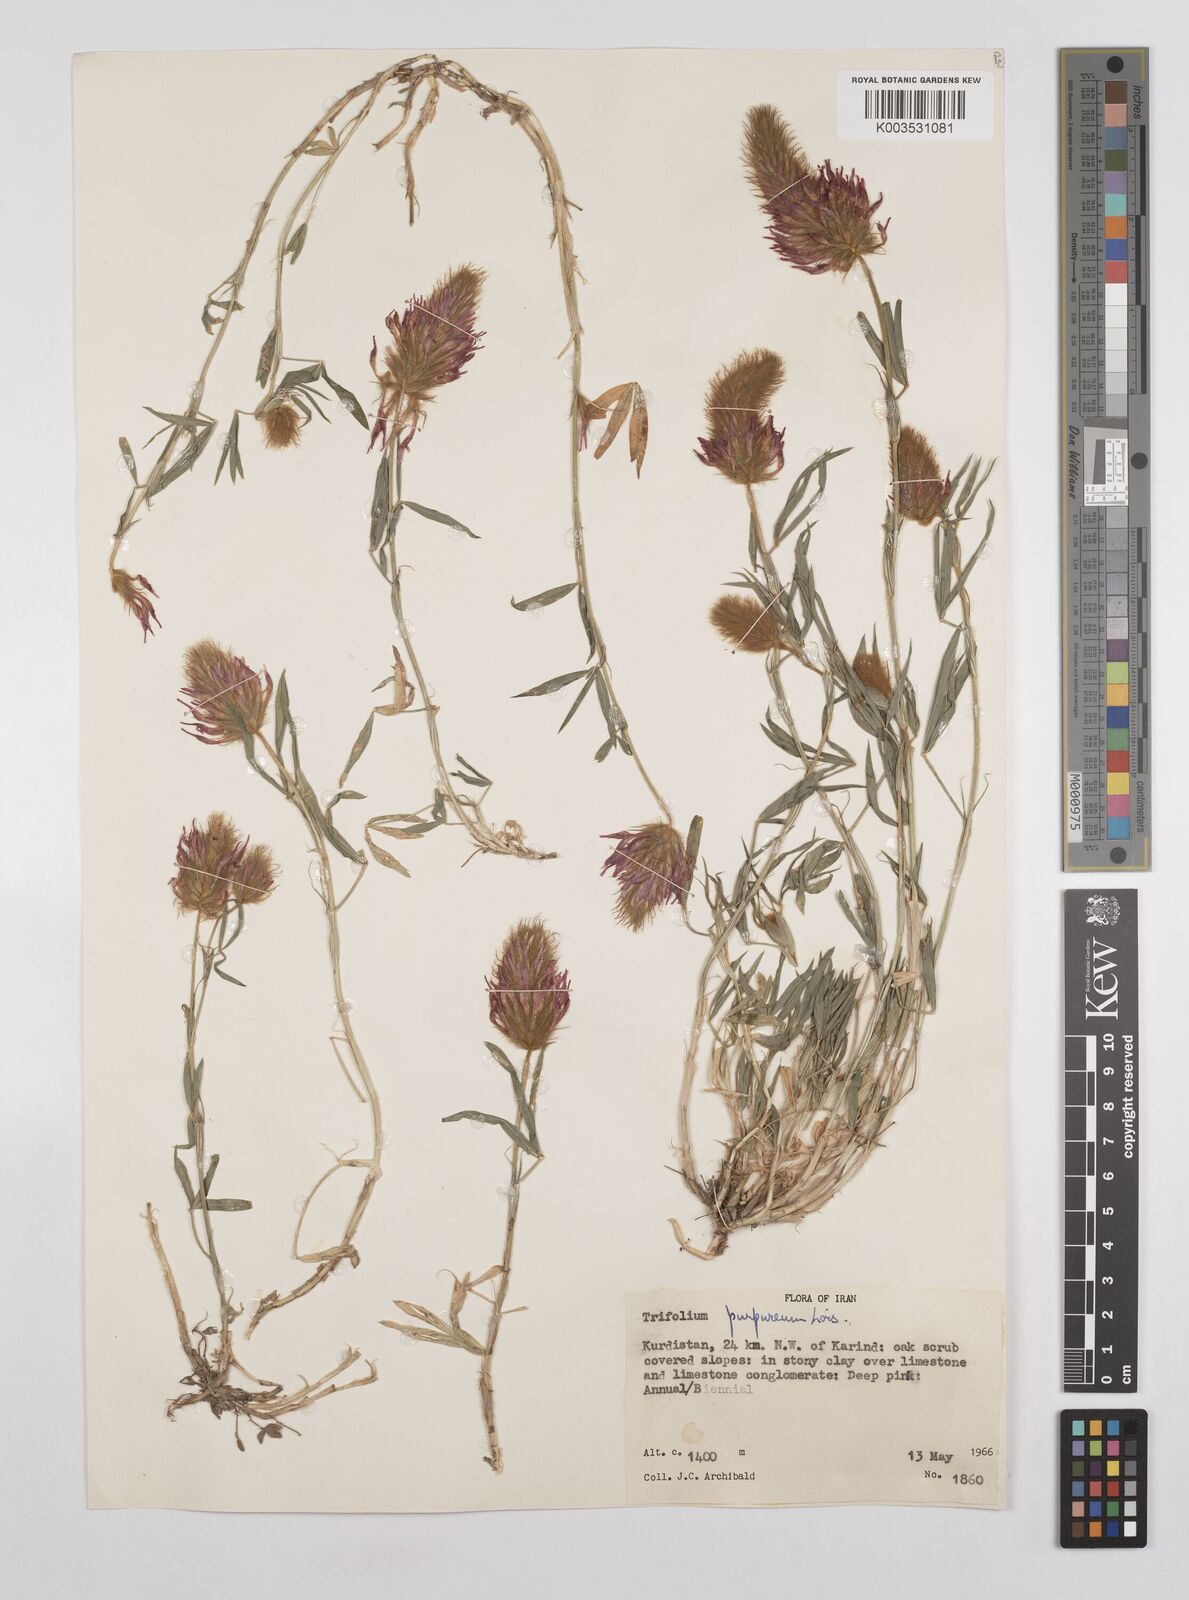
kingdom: Plantae
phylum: Tracheophyta
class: Magnoliopsida
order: Fabales
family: Fabaceae
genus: Trifolium
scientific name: Trifolium purpureum
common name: Purple clover
